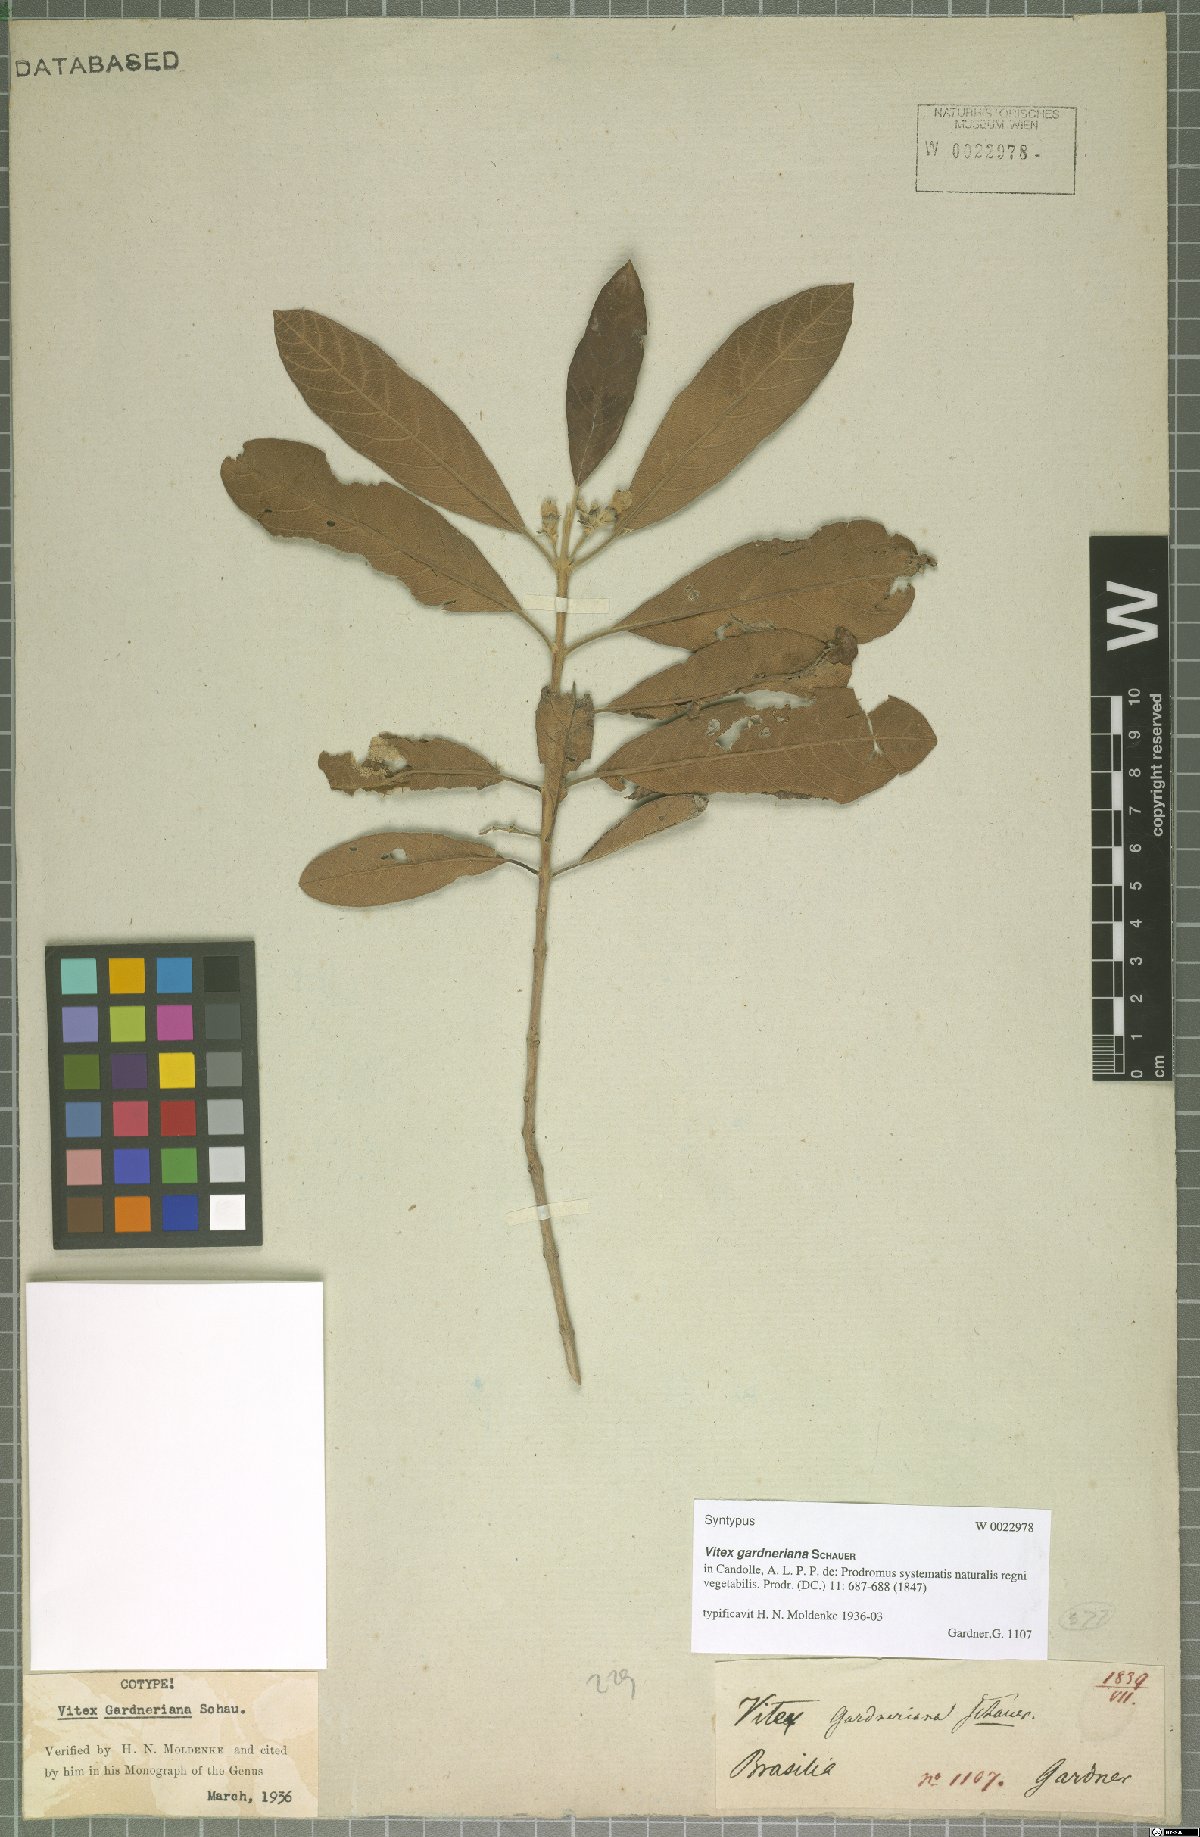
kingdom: Plantae
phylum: Tracheophyta
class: Magnoliopsida
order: Lamiales
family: Lamiaceae
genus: Vitex
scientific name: Vitex gardneriana
